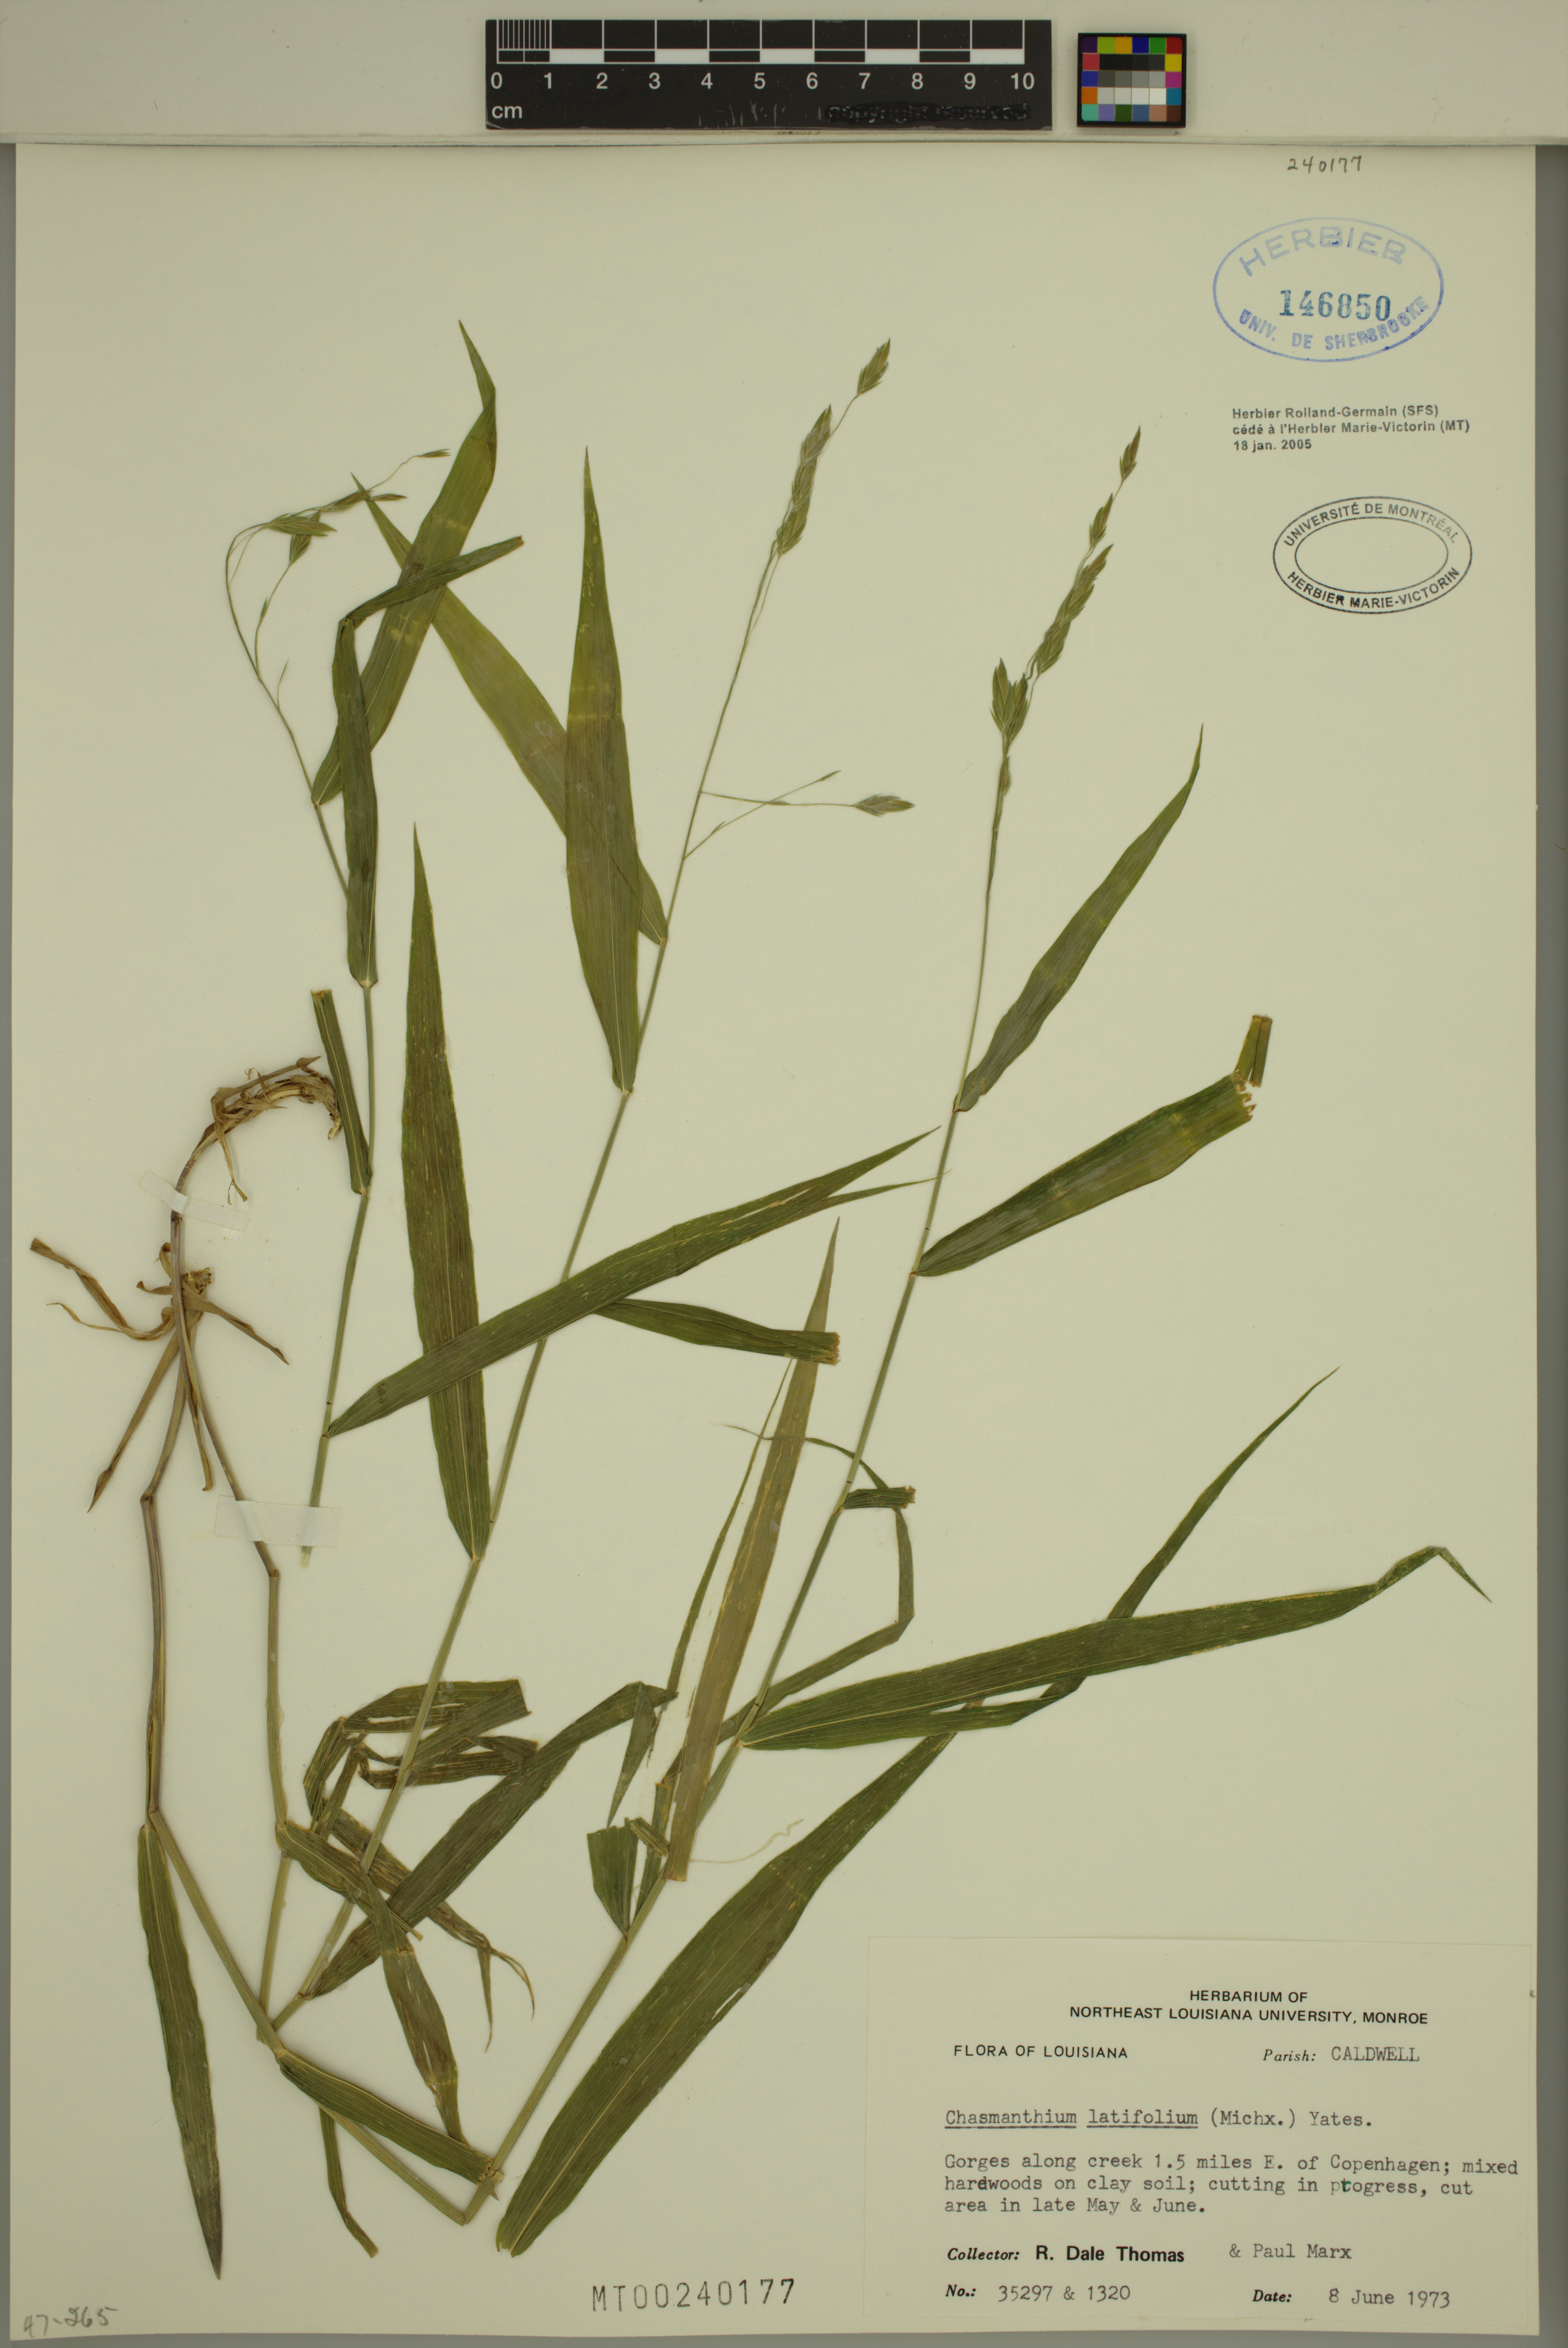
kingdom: Plantae
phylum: Tracheophyta
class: Liliopsida
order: Poales
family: Poaceae
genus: Chasmanthium
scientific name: Chasmanthium latifolium
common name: Broad-leaved chasmanthium
